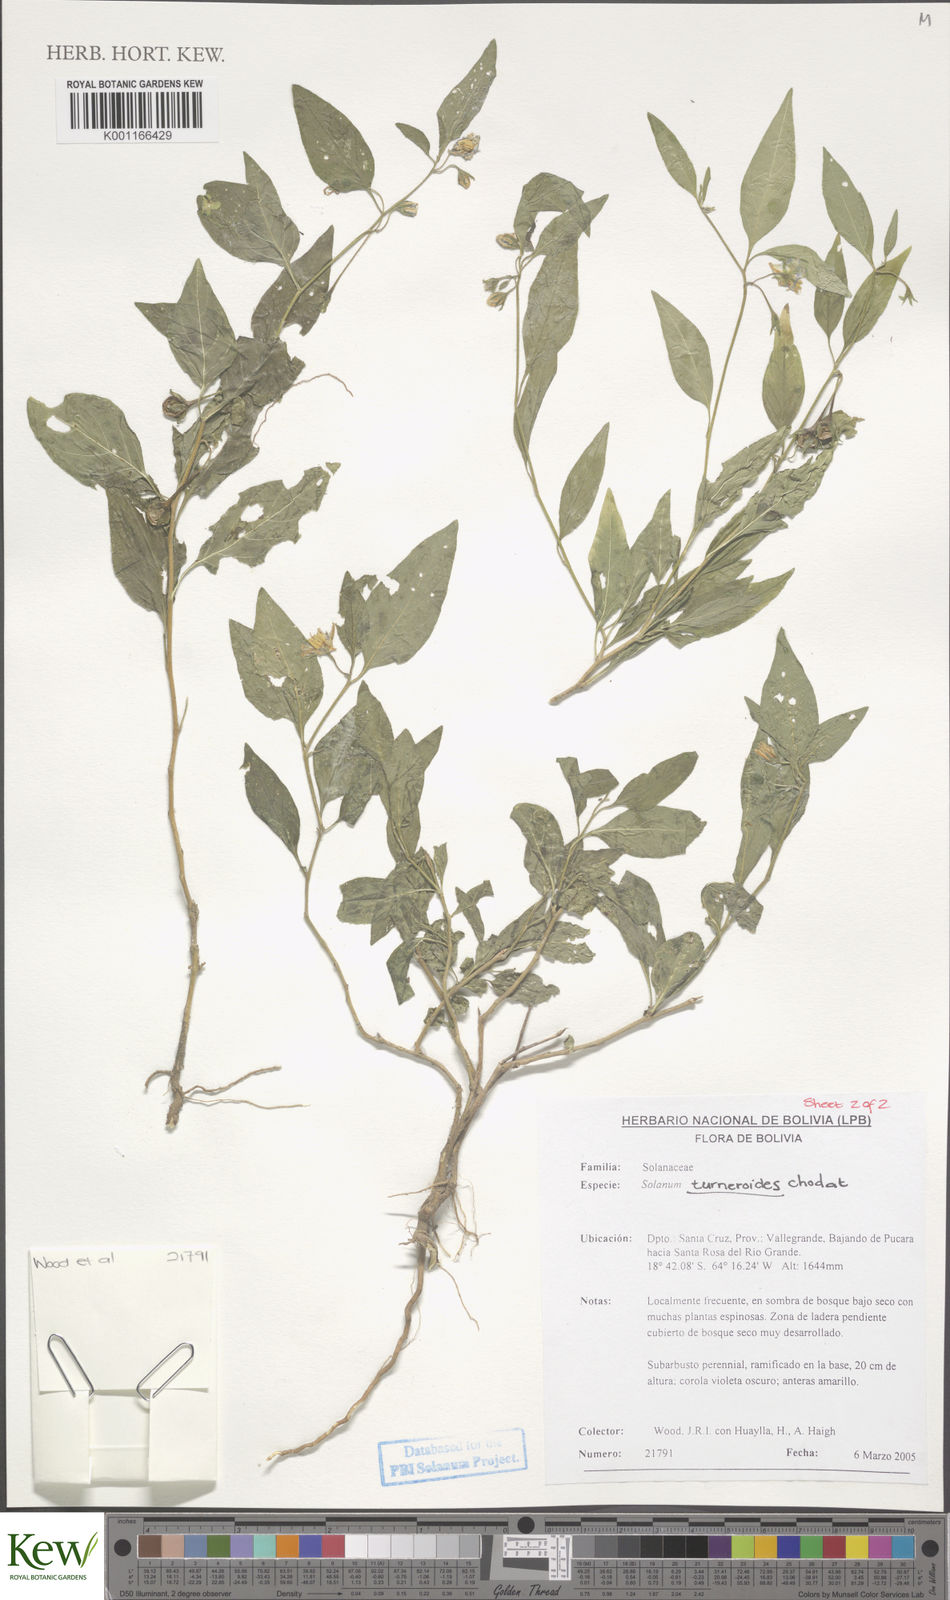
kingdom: Plantae
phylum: Tracheophyta
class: Magnoliopsida
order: Solanales
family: Solanaceae
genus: Solanum
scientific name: Solanum turneroides
